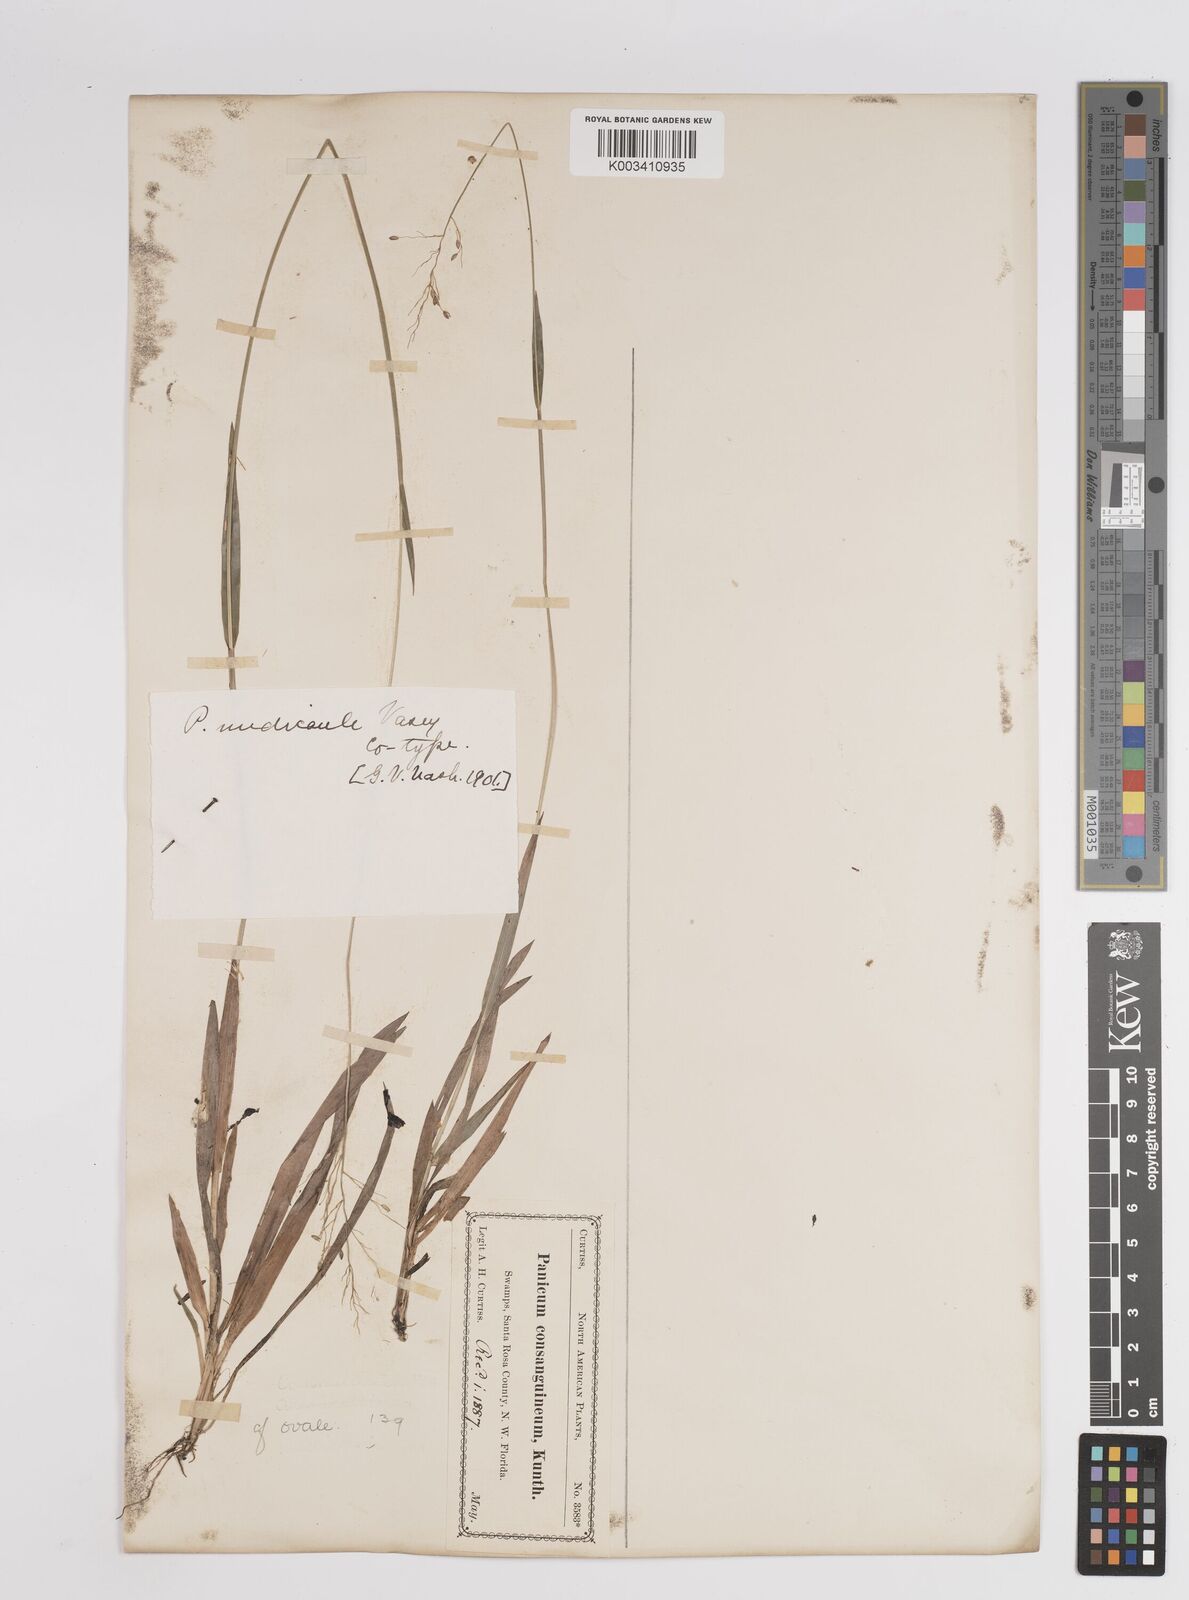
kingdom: Plantae
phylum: Tracheophyta
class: Liliopsida
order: Poales
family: Poaceae
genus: Dichanthelium
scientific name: Dichanthelium ovale
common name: Stiff-leaved panicgrass
